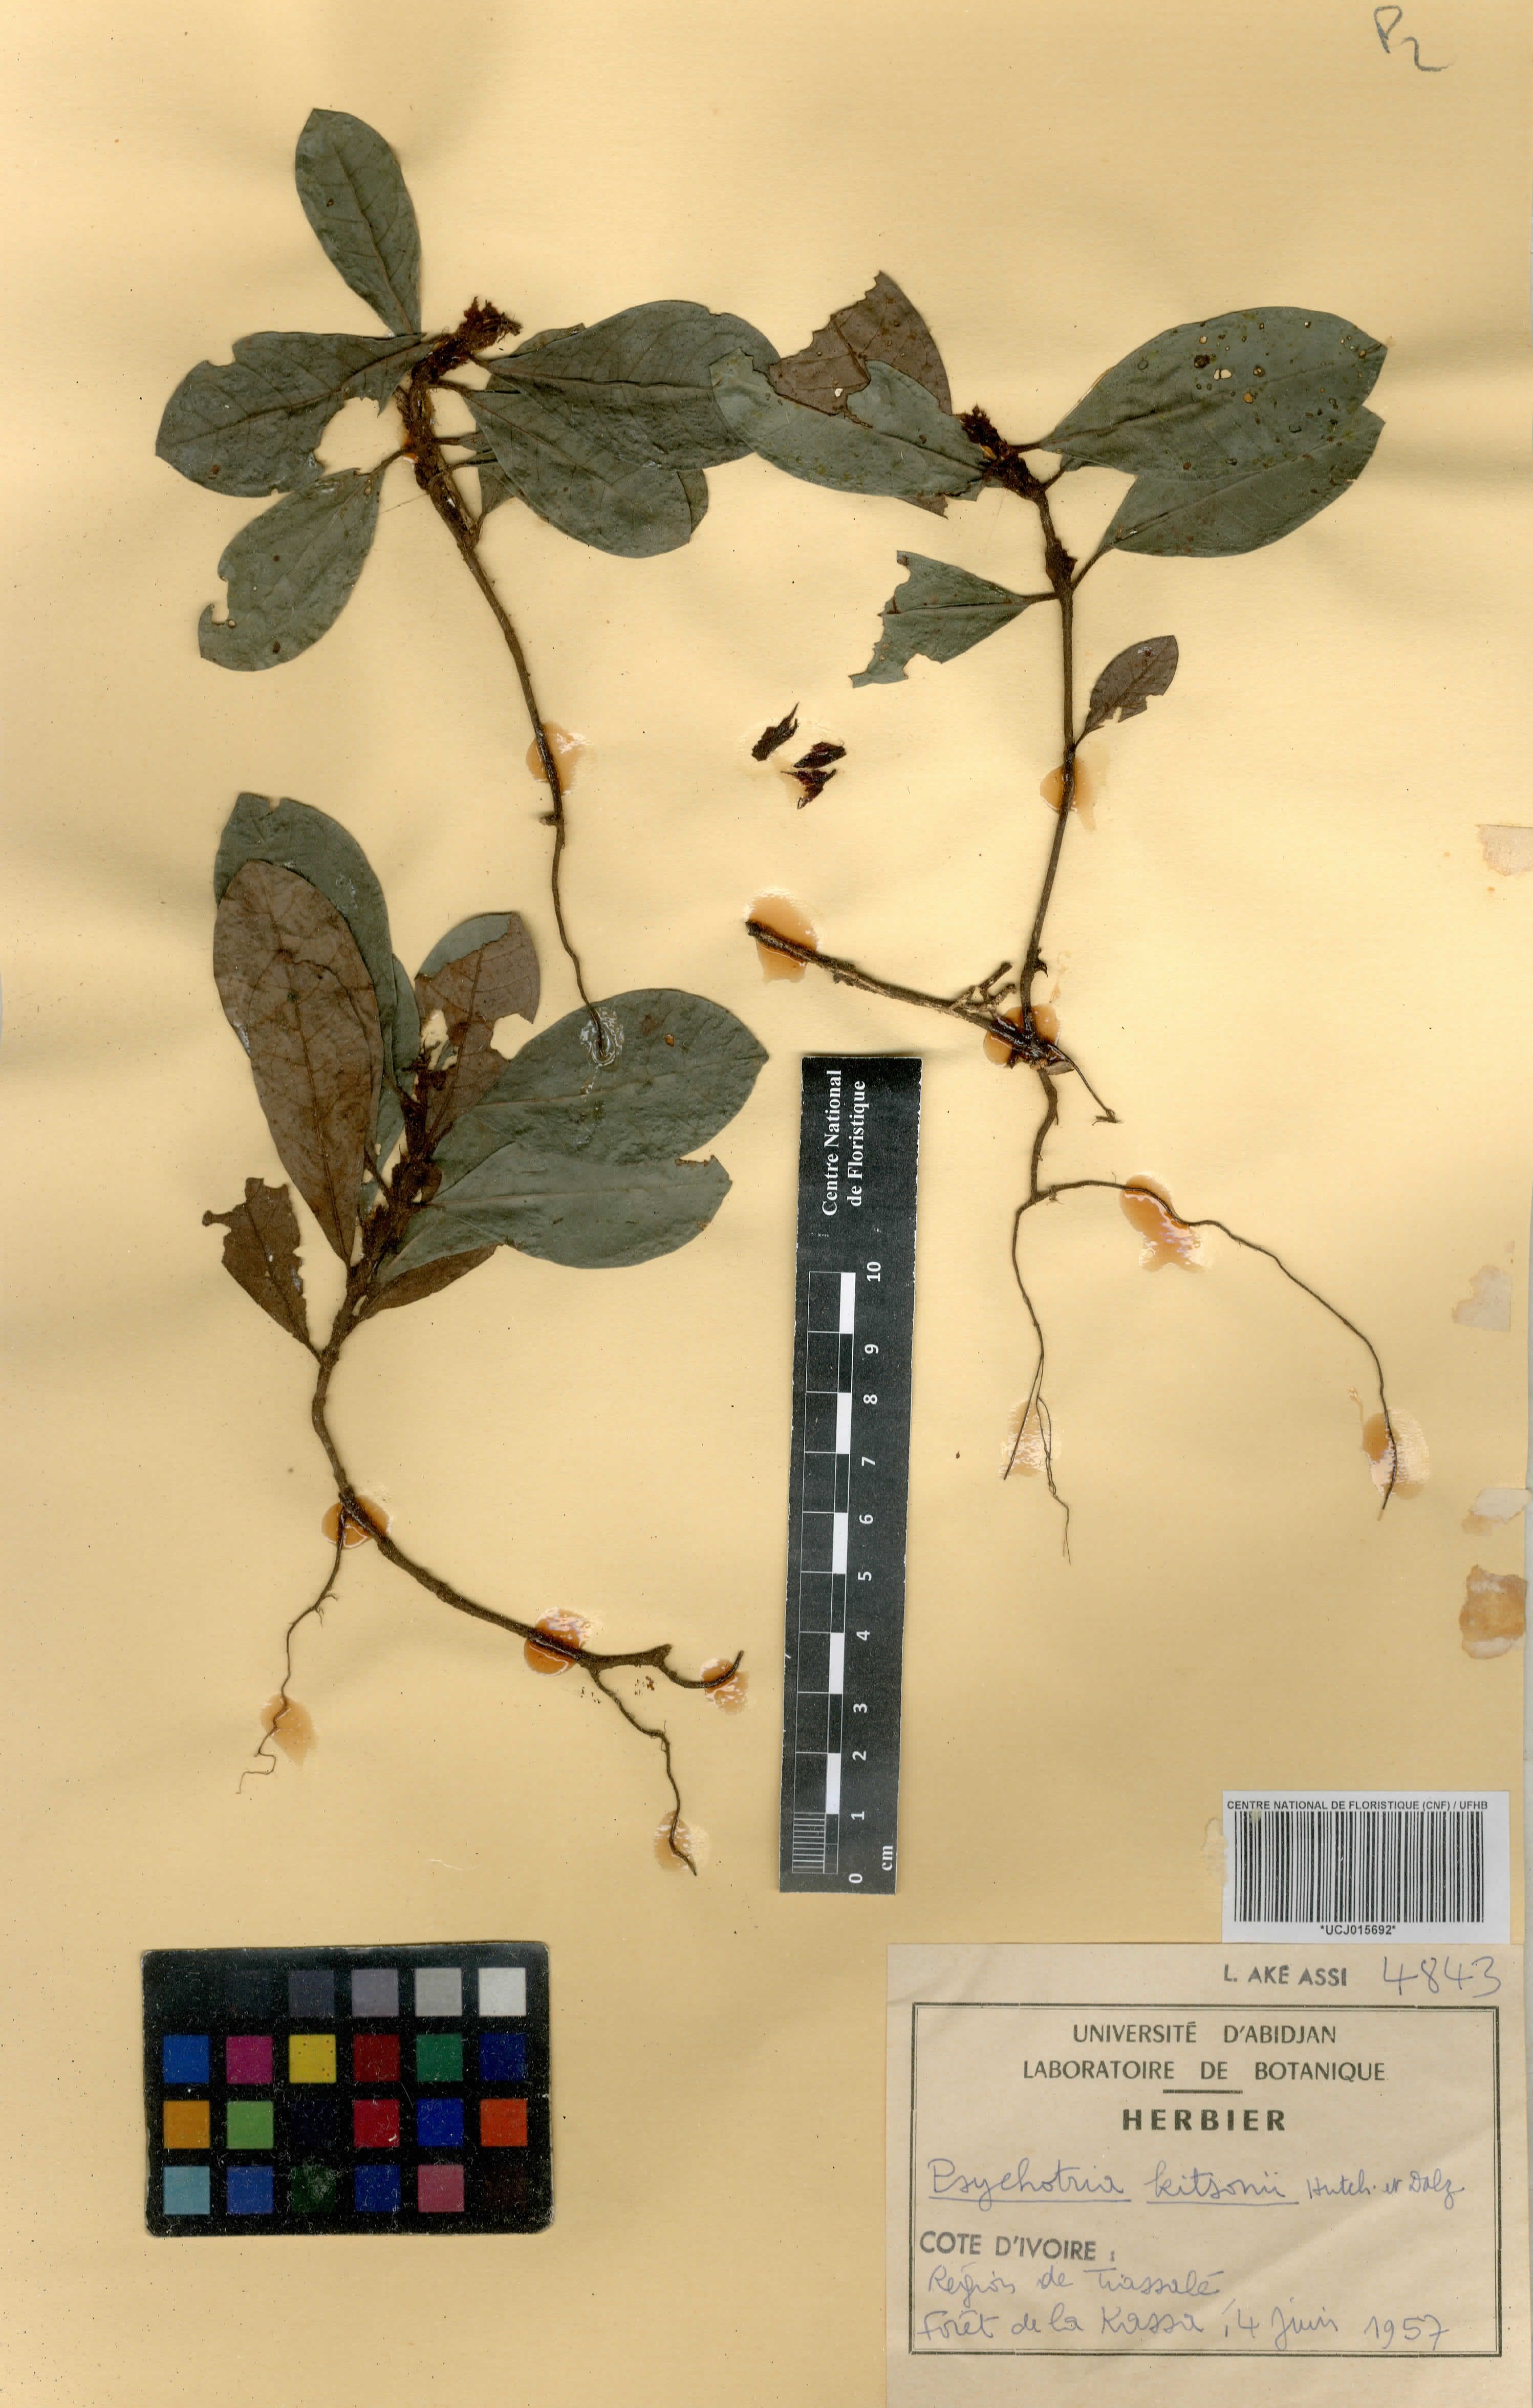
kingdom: Plantae
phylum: Tracheophyta
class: Magnoliopsida
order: Gentianales
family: Rubiaceae
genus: Psychotria
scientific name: Psychotria kitsonii
